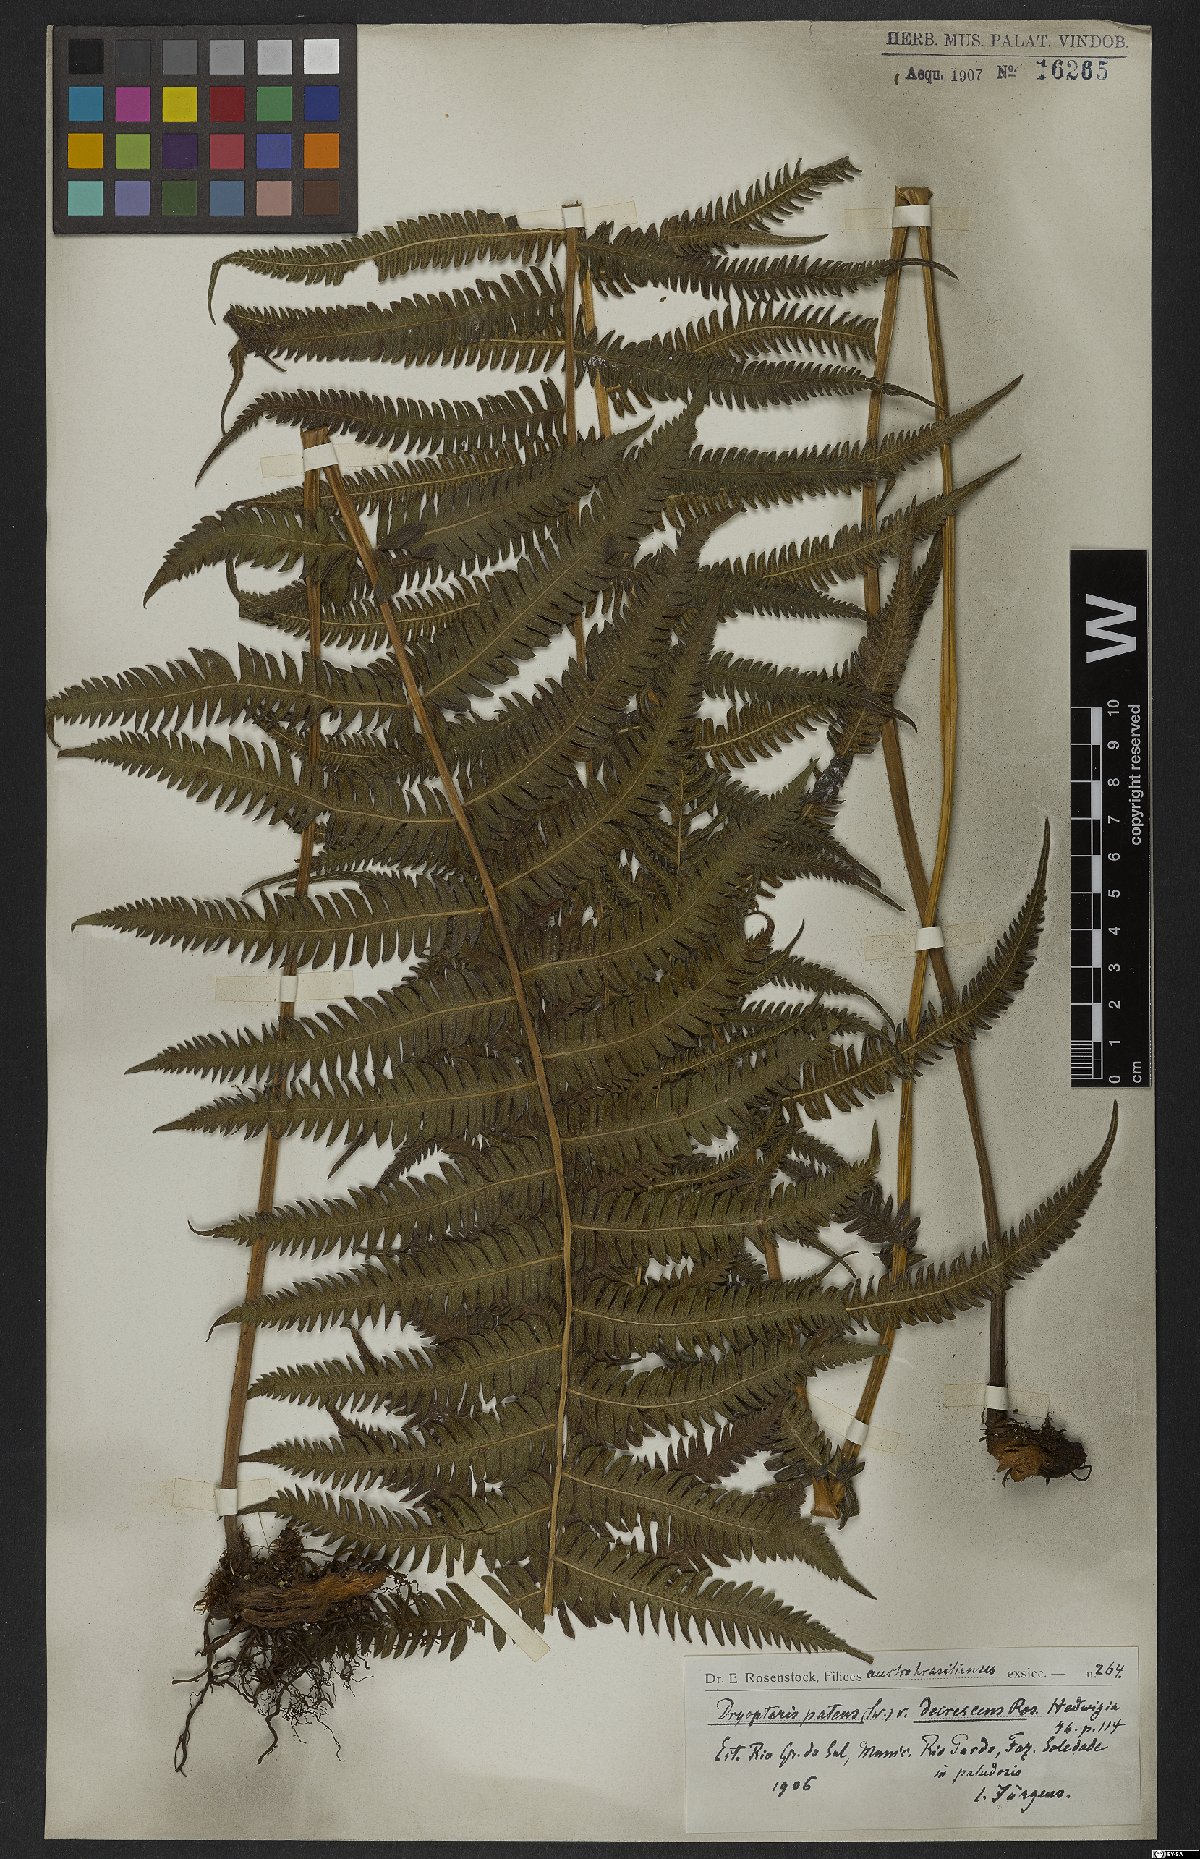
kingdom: Plantae
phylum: Tracheophyta
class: Polypodiopsida
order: Polypodiales
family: Thelypteridaceae
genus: Pelazoneuron
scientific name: Pelazoneuron patens
